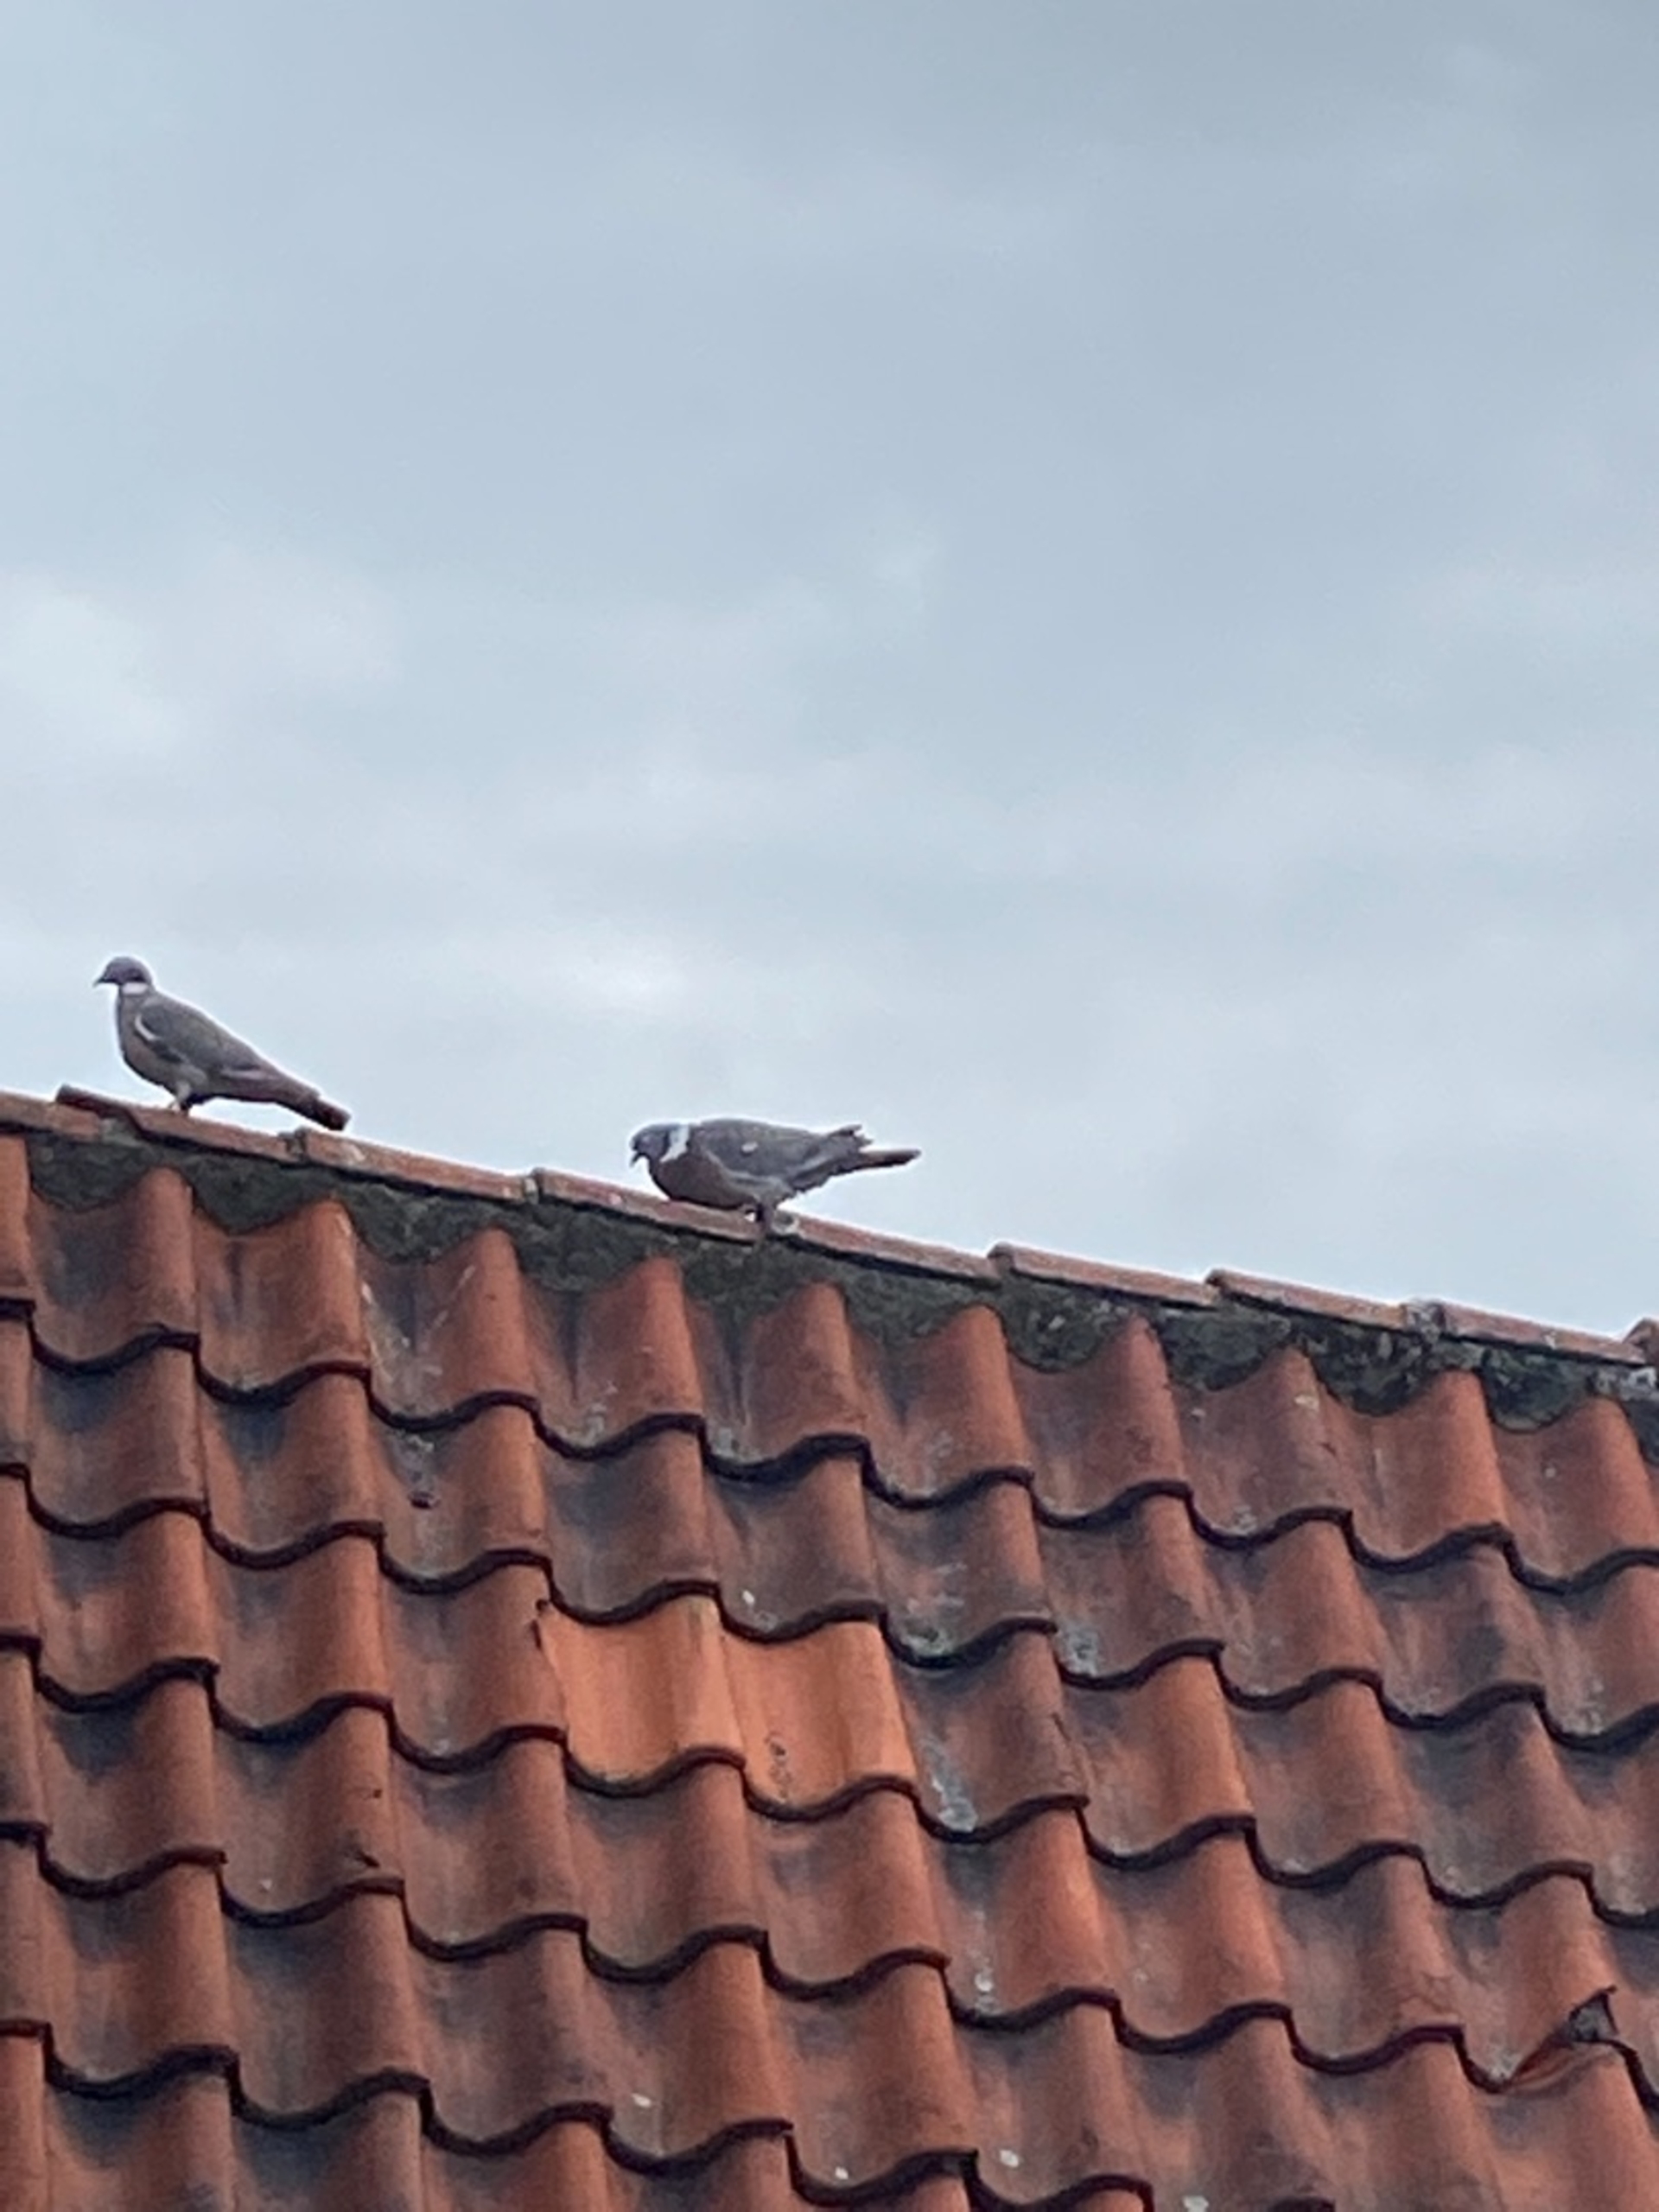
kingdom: Animalia
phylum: Chordata
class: Aves
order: Columbiformes
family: Columbidae
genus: Columba
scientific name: Columba palumbus
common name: Ringdue
